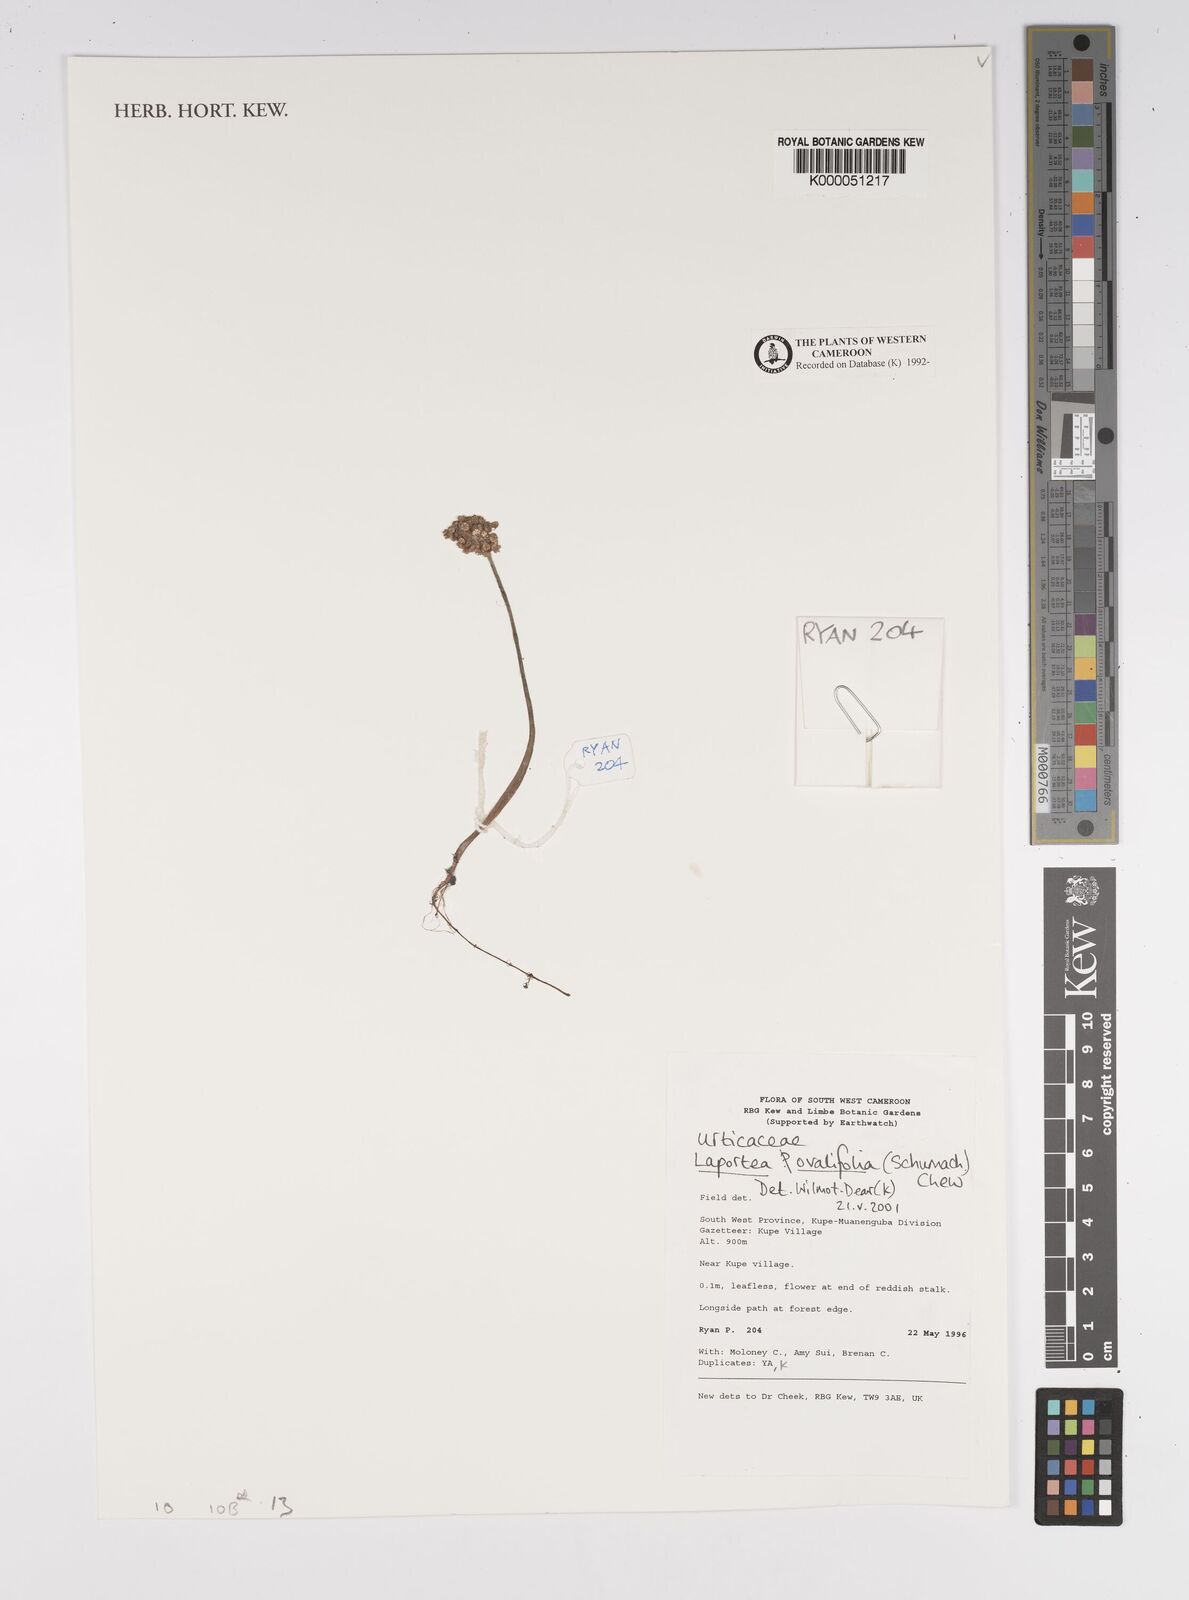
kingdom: Plantae
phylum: Tracheophyta
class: Magnoliopsida
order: Rosales
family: Urticaceae
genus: Laportea
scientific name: Laportea ovalifolia
